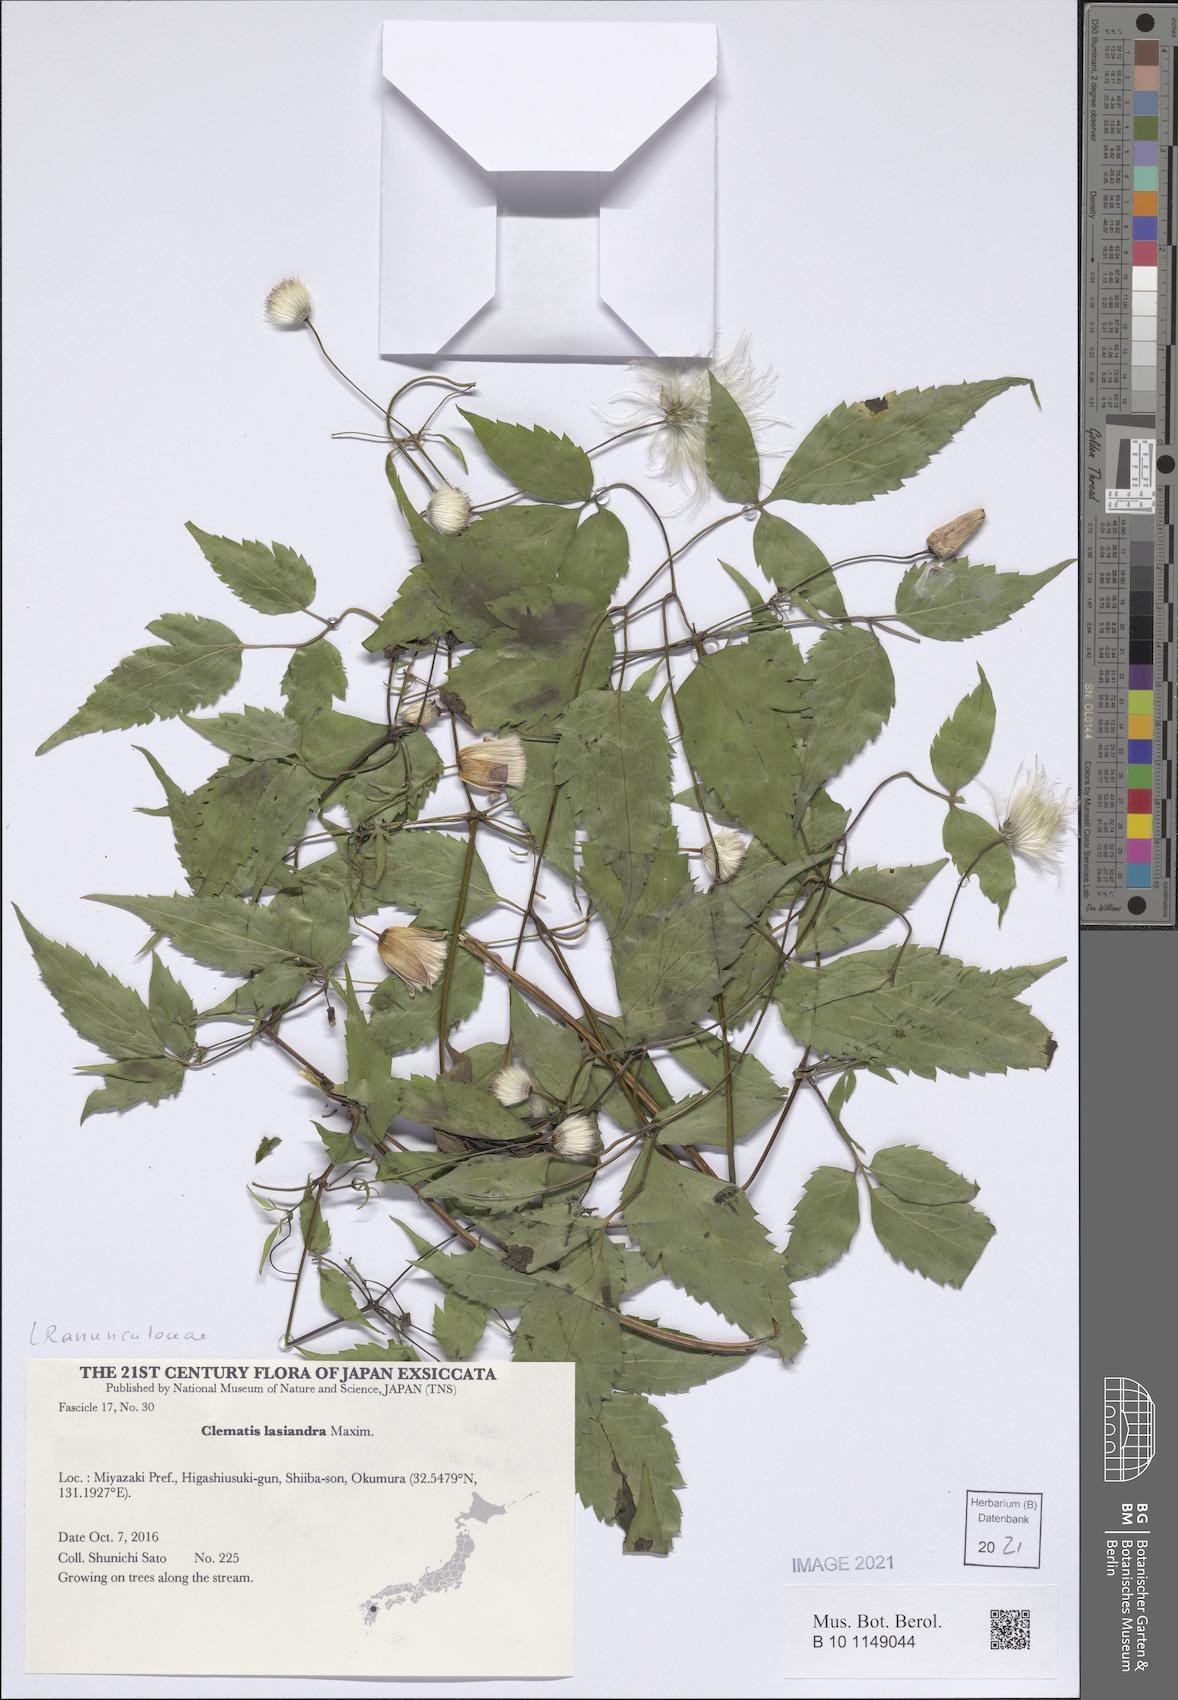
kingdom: Plantae
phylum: Tracheophyta
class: Magnoliopsida
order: Ranunculales
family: Ranunculaceae
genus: Clematis
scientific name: Clematis lasiandra
